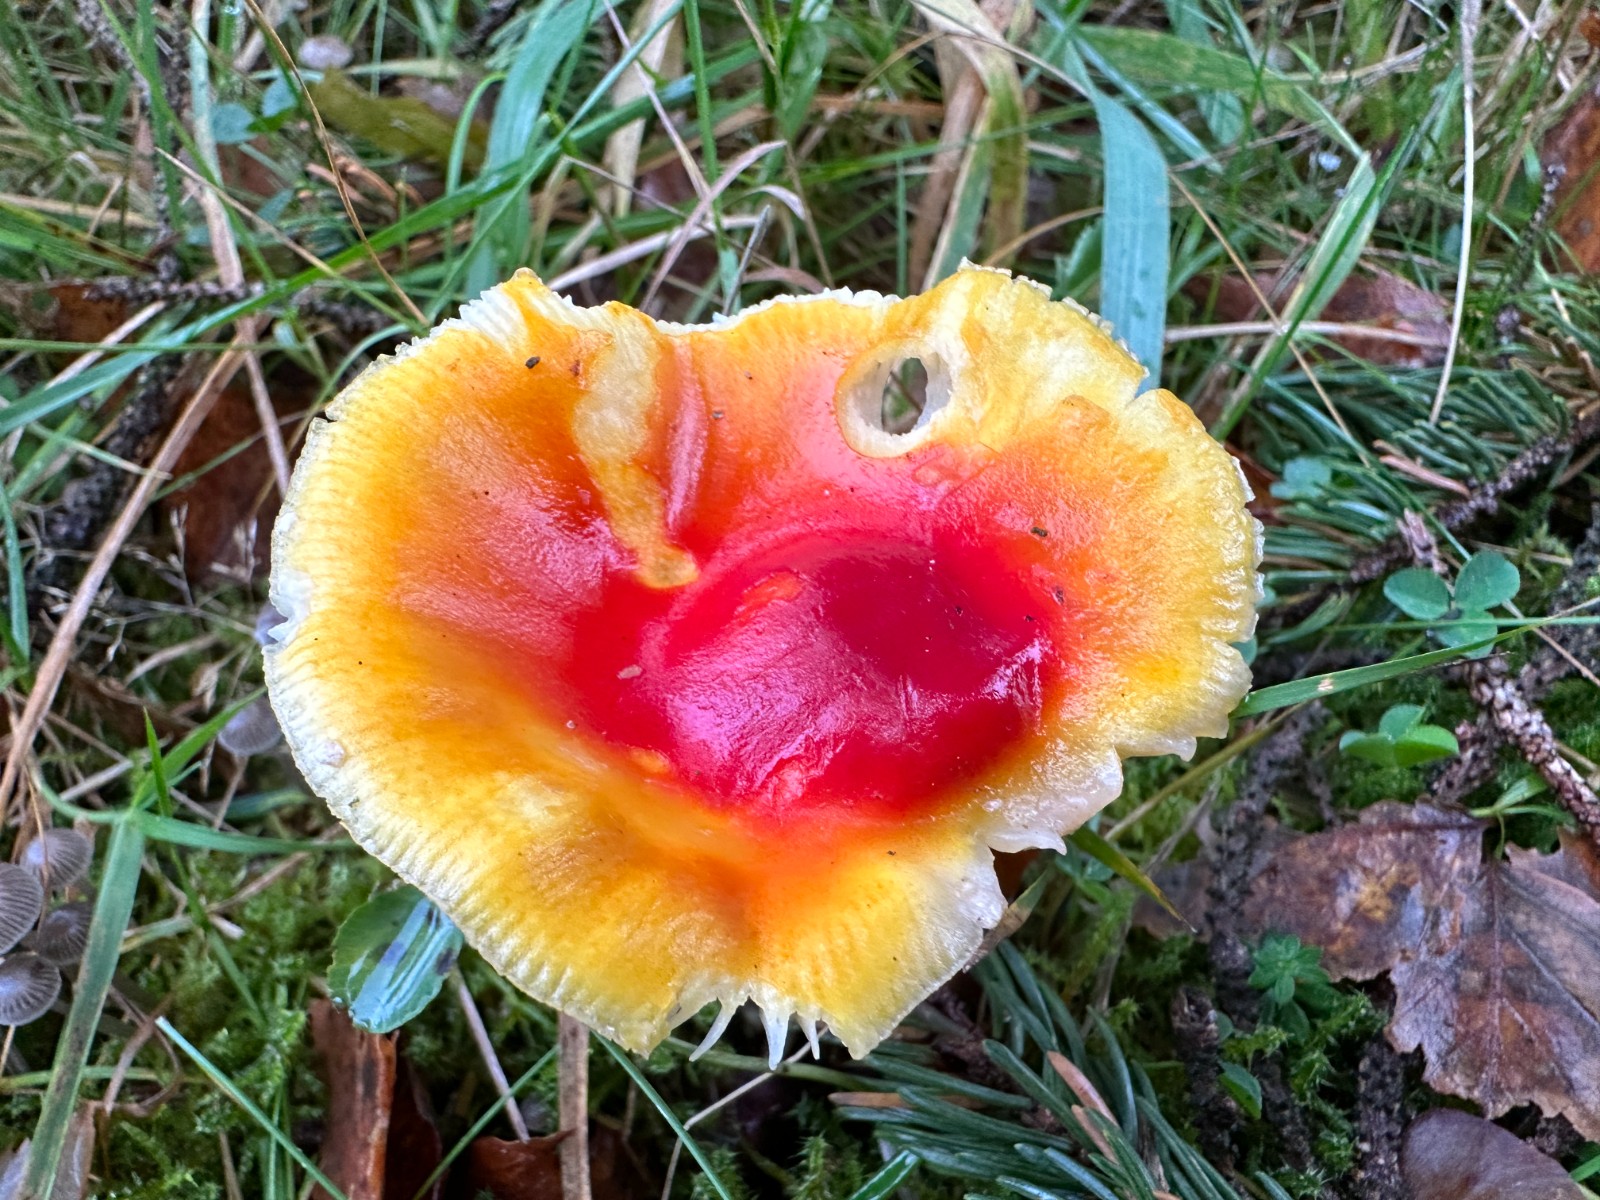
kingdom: Fungi
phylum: Basidiomycota
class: Agaricomycetes
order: Agaricales
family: Amanitaceae
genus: Amanita
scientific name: Amanita muscaria
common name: rød fluesvamp
